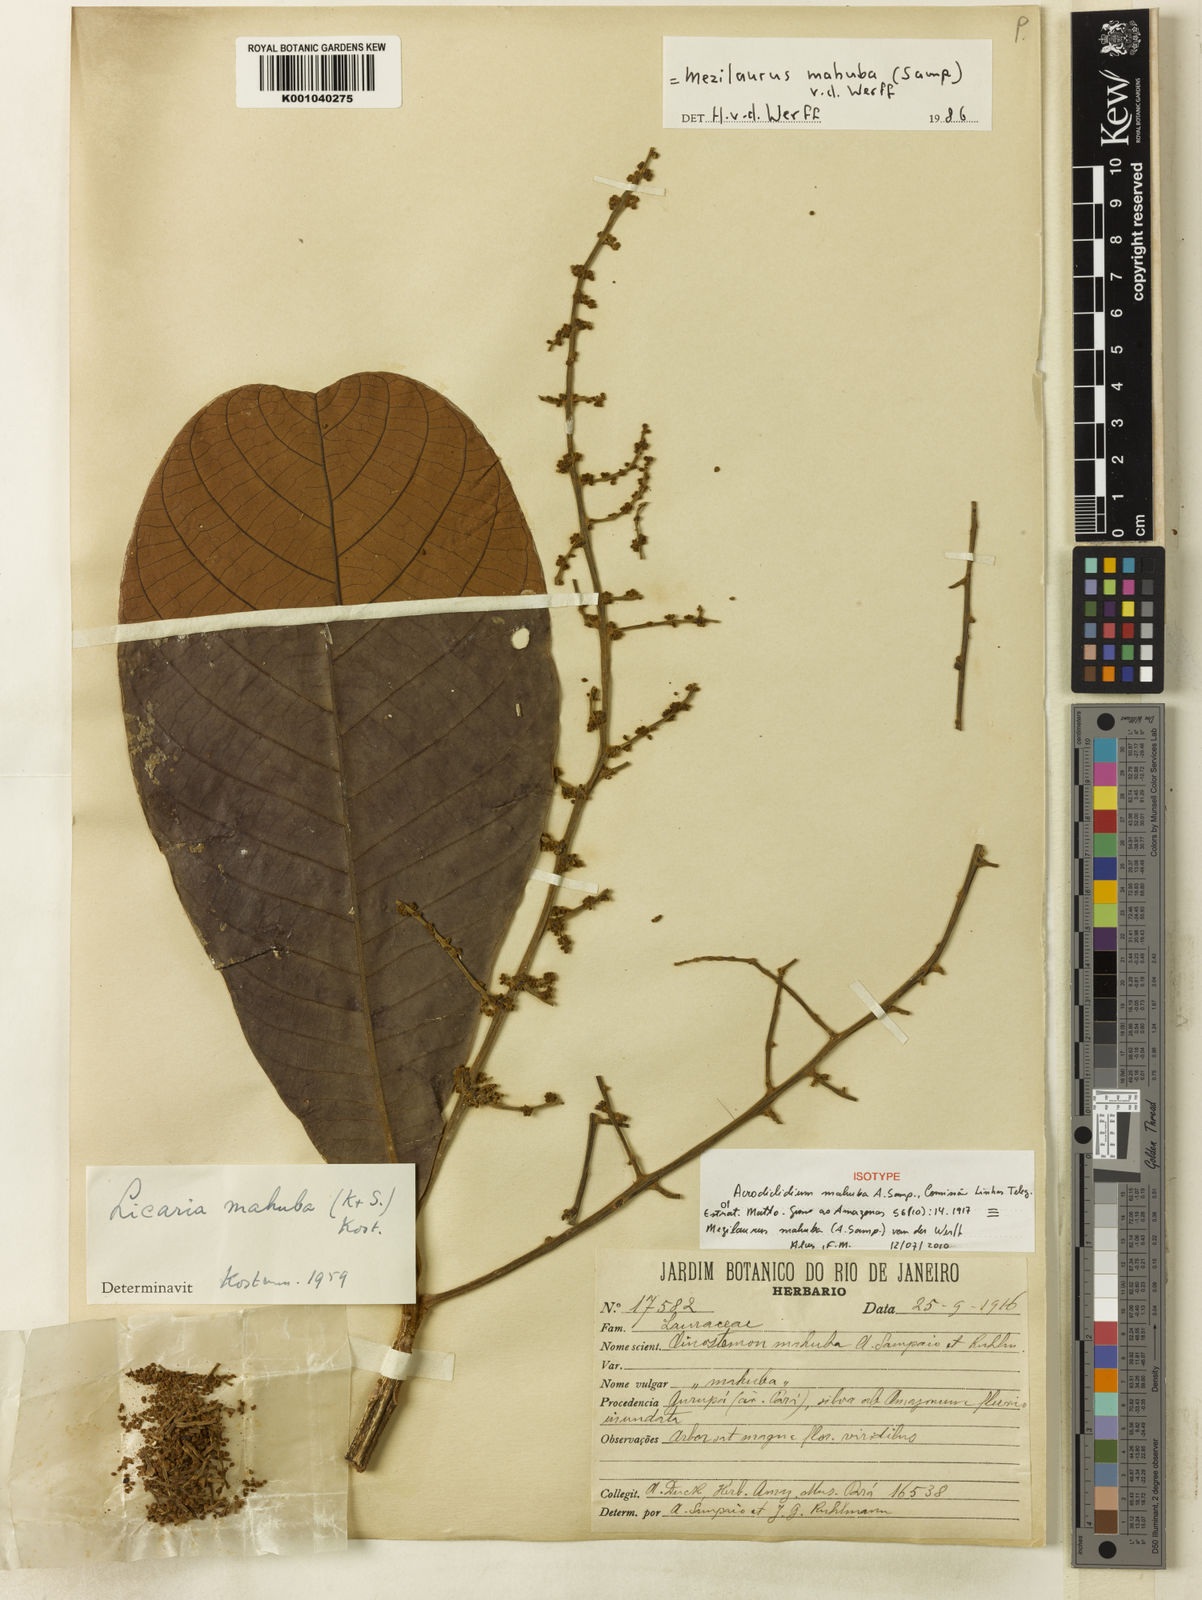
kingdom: Plantae
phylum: Tracheophyta
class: Magnoliopsida
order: Laurales
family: Lauraceae
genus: Mezilaurus
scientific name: Mezilaurus mahuba
